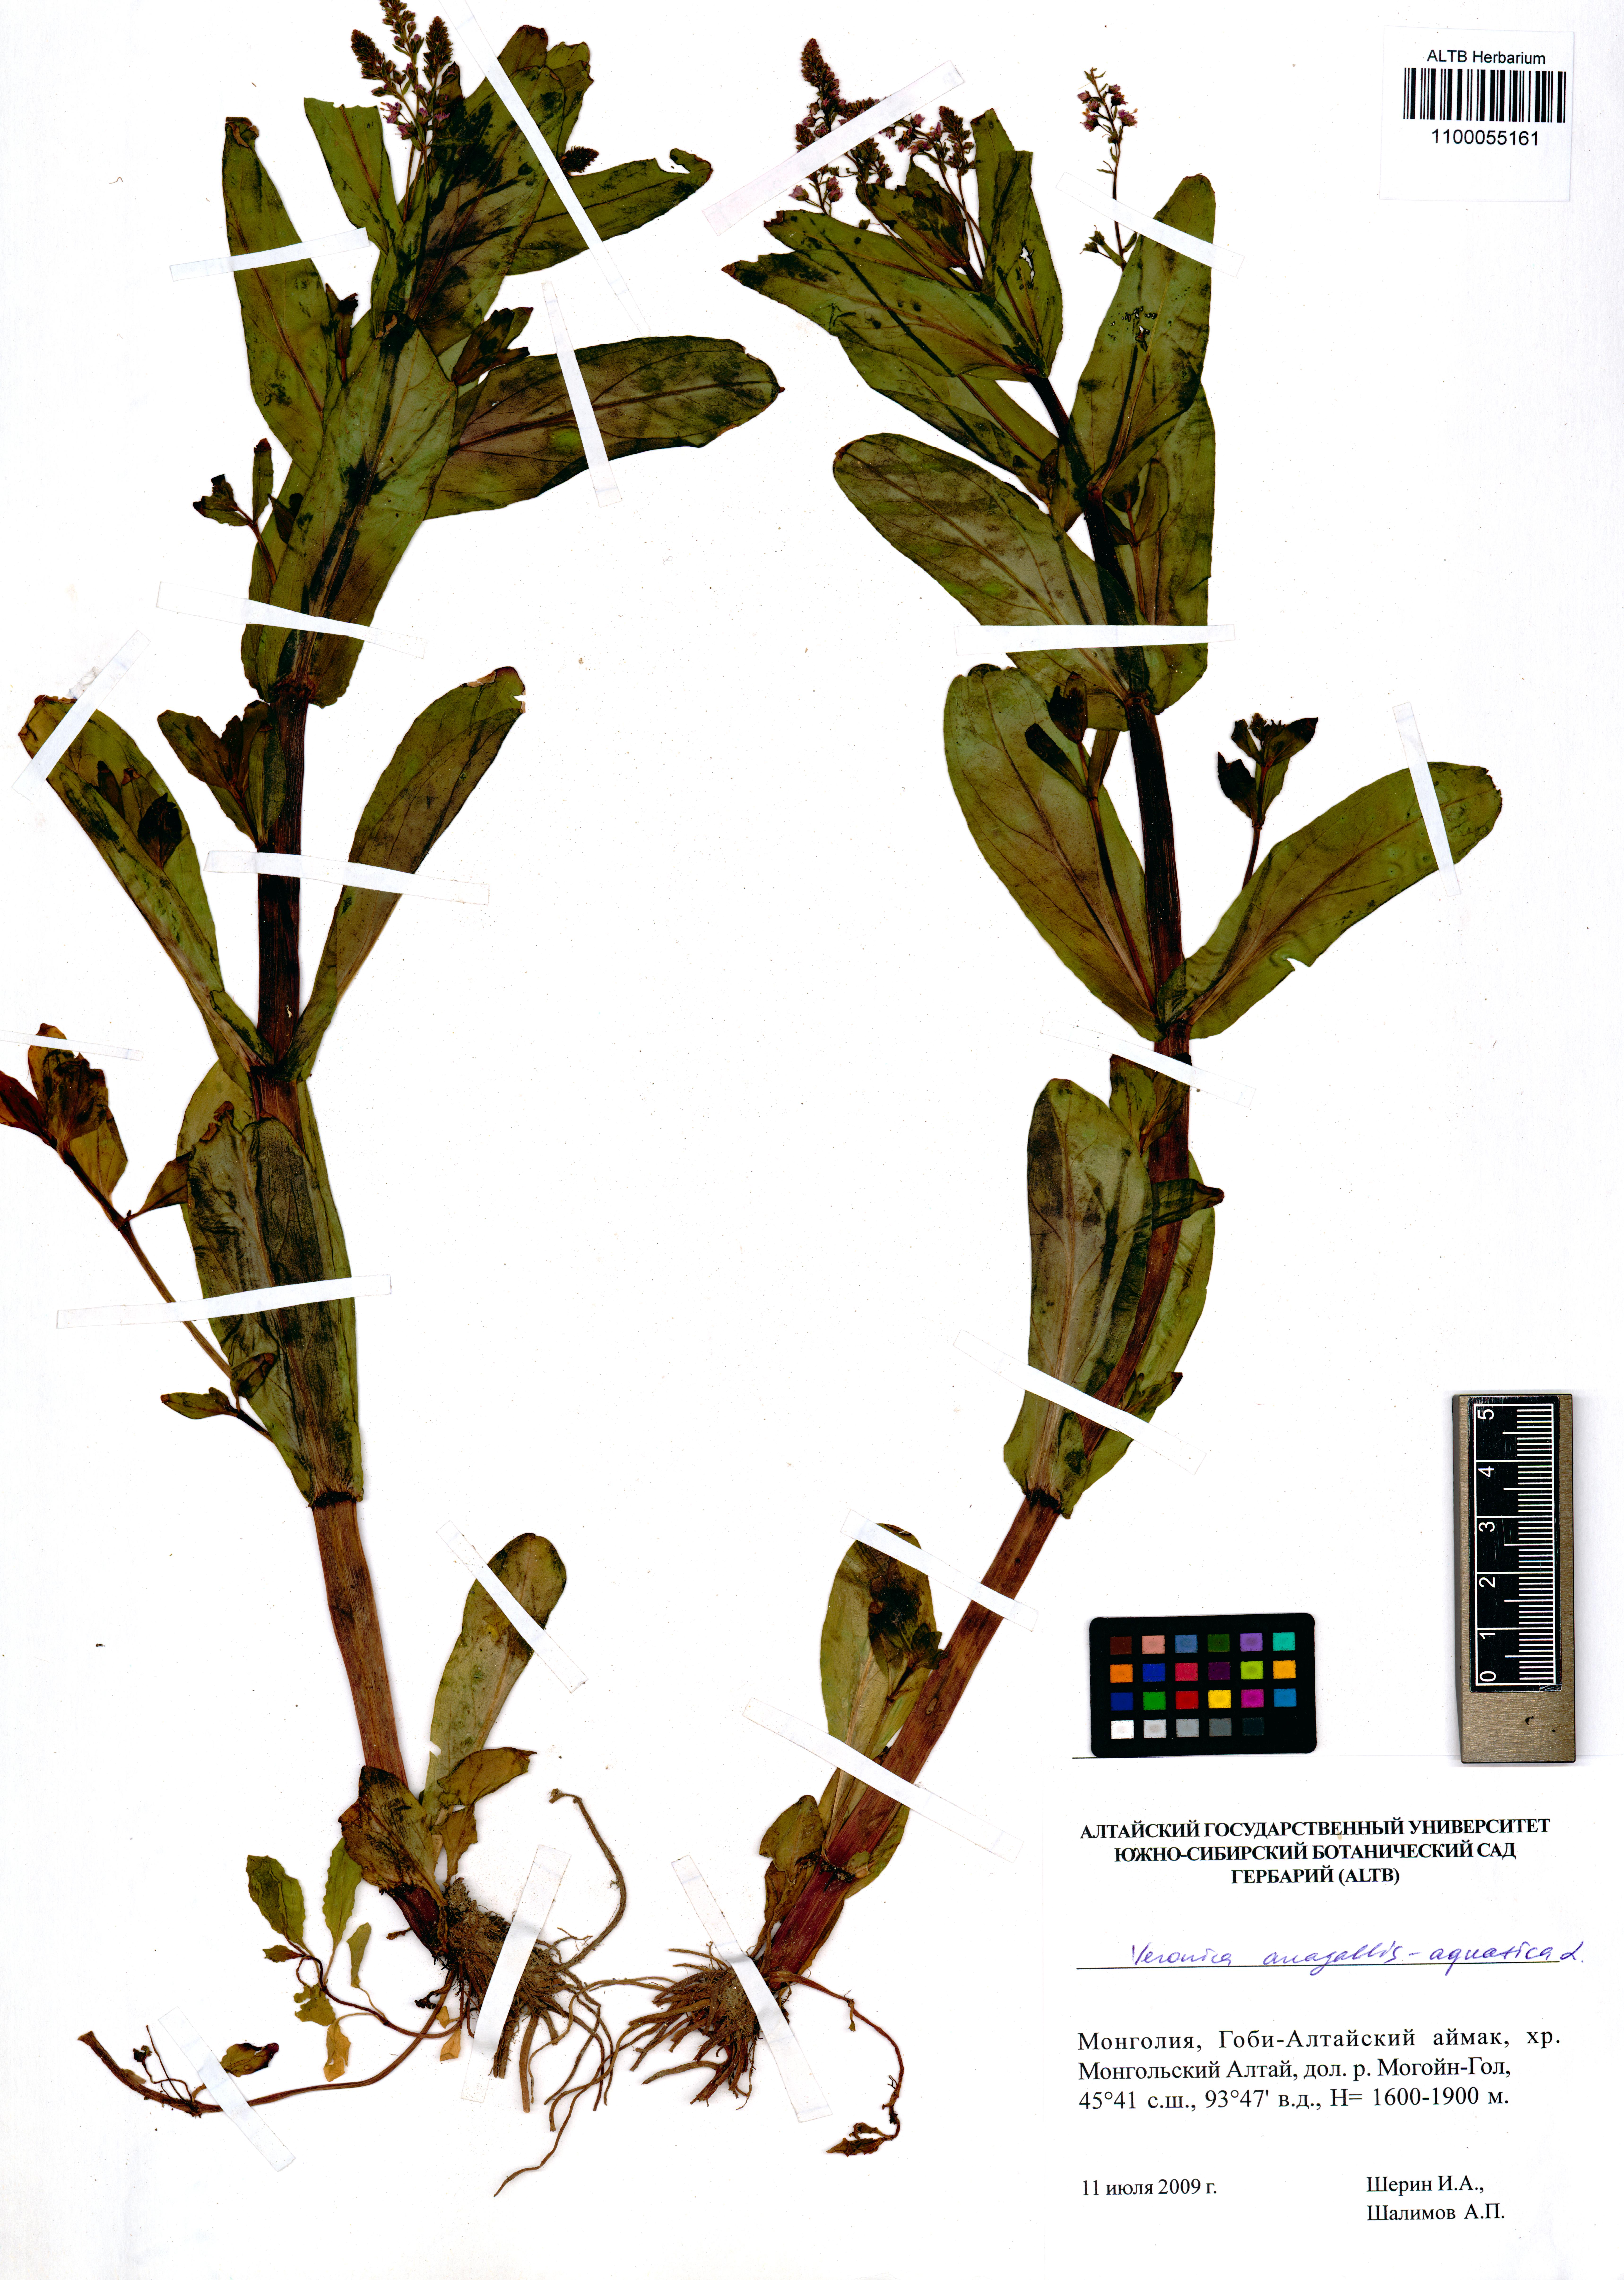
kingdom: Plantae
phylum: Tracheophyta
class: Magnoliopsida
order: Lamiales
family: Plantaginaceae
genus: Veronica
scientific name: Veronica anagallis-aquatica
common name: Water speedwell
